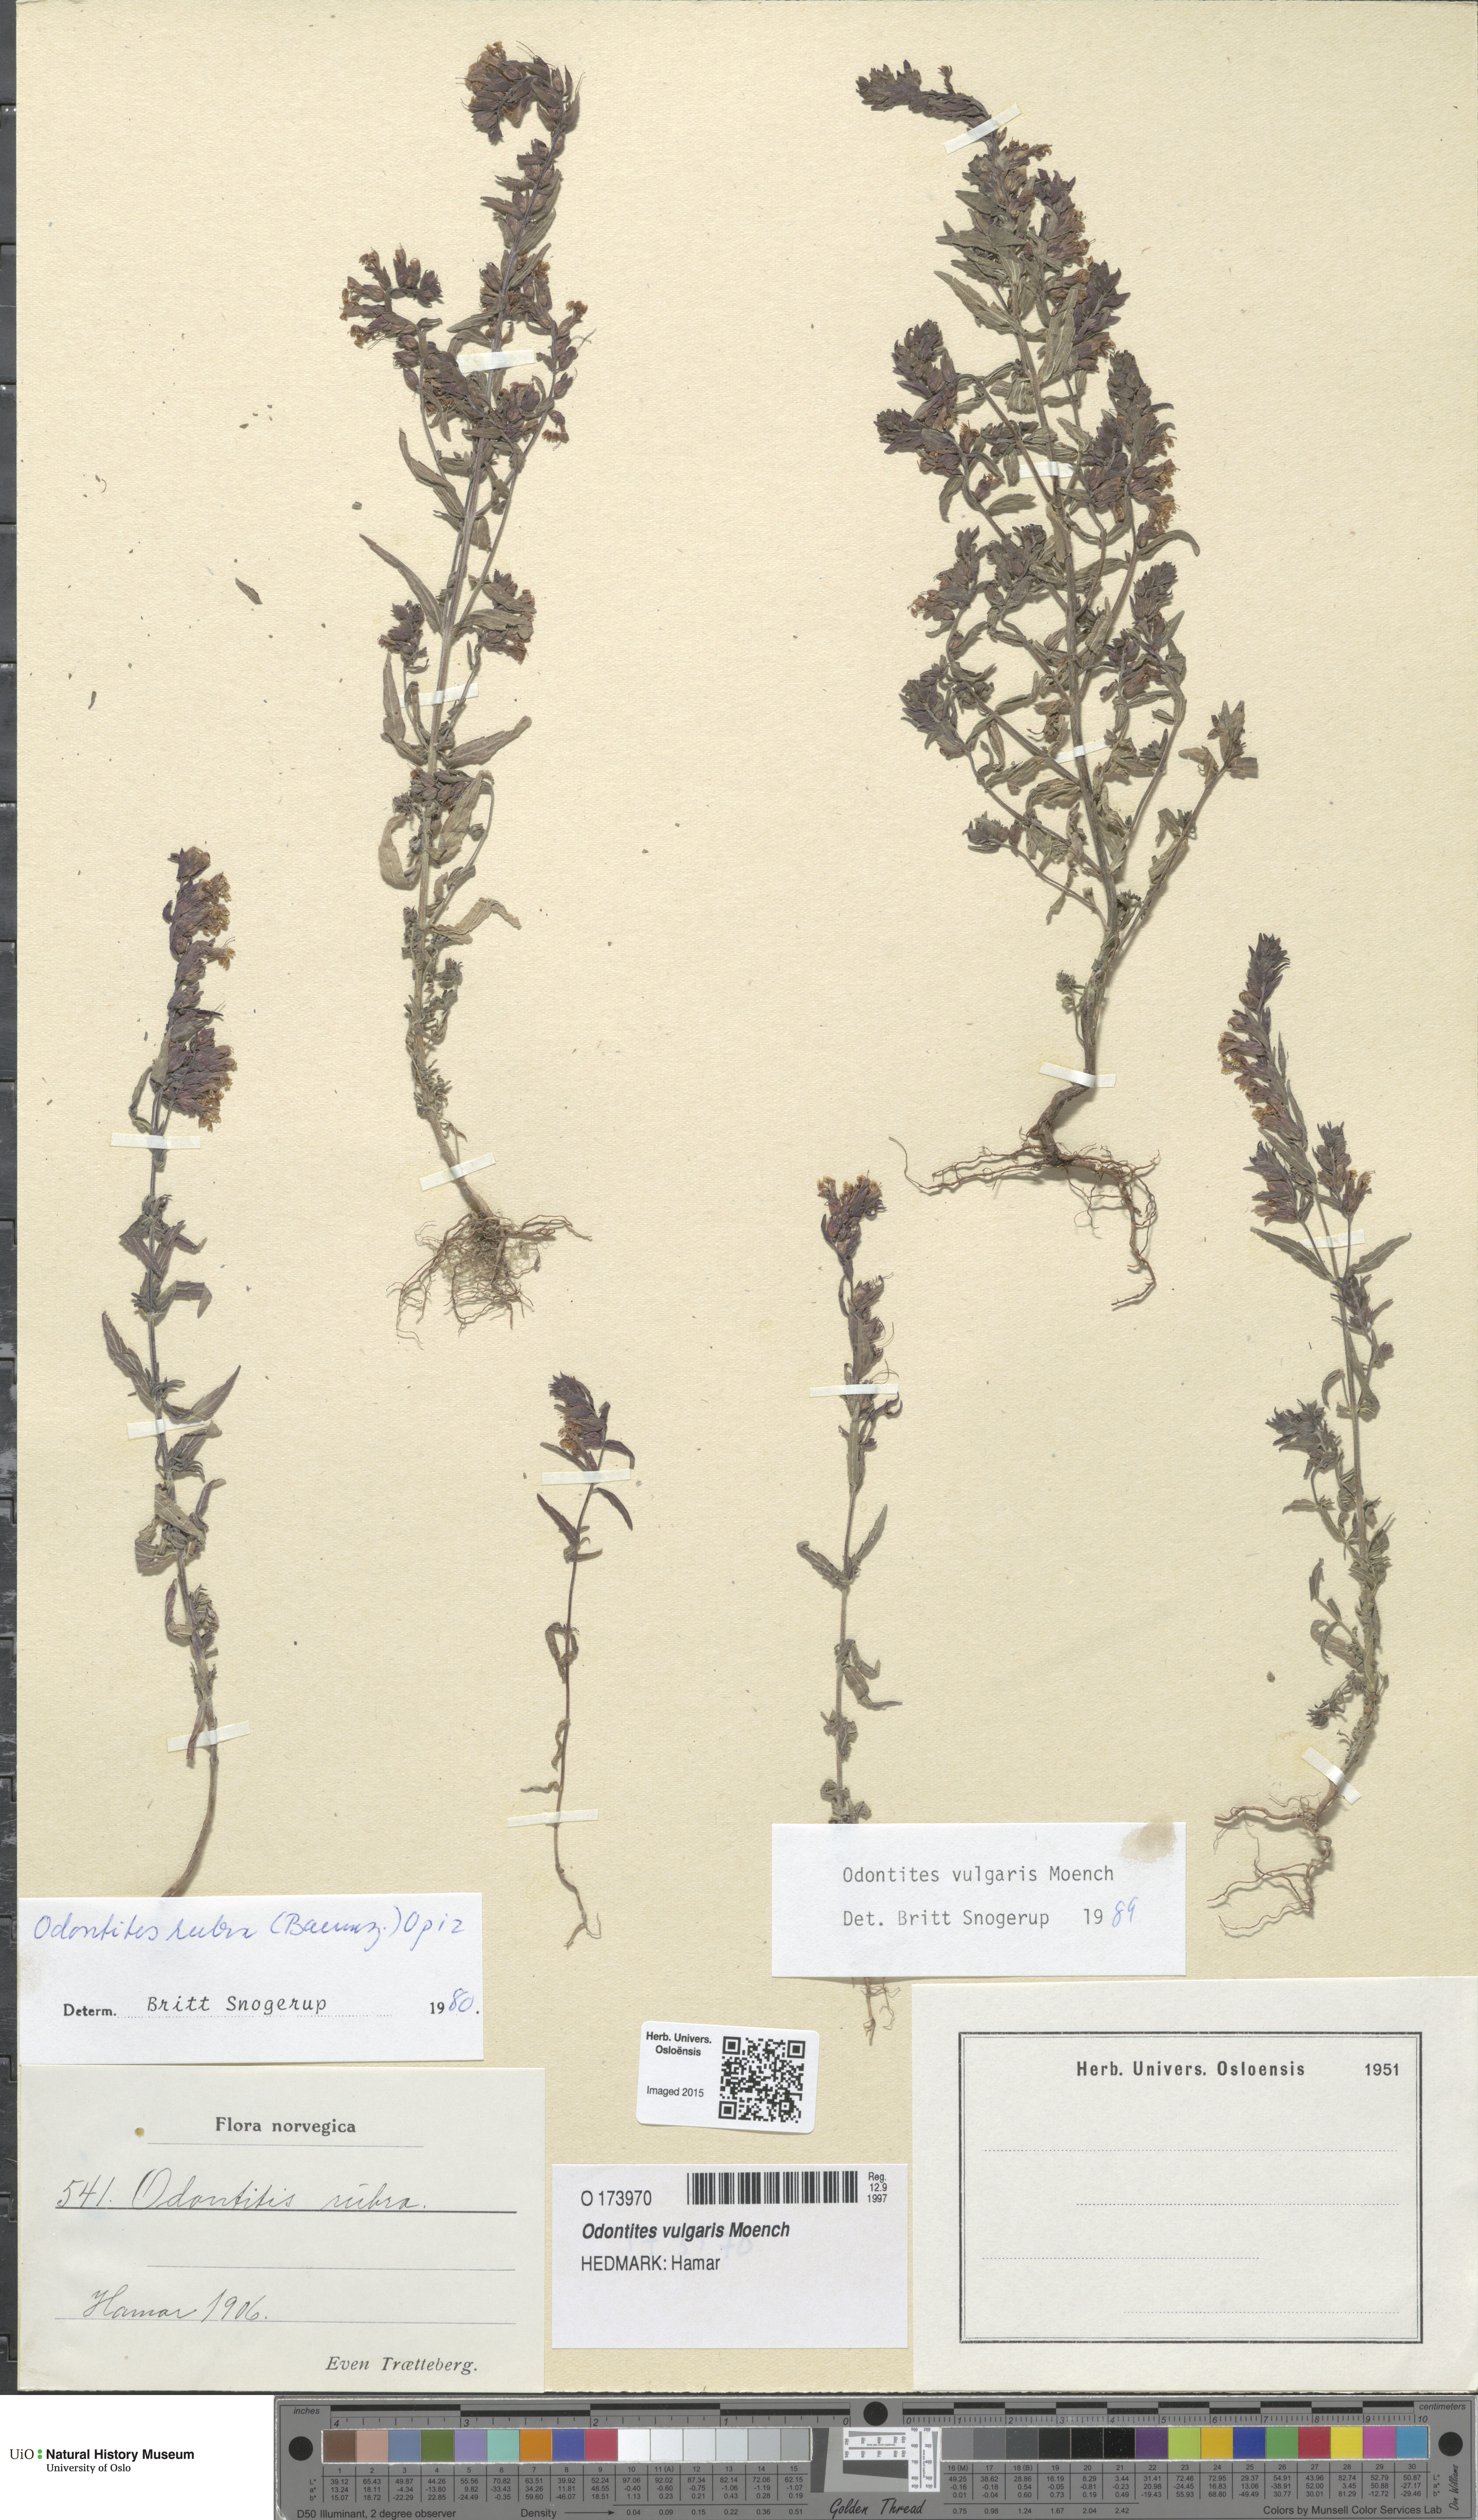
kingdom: Plantae
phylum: Tracheophyta
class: Magnoliopsida
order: Lamiales
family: Orobanchaceae
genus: Odontites
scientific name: Odontites vulgaris
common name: Broomrape
